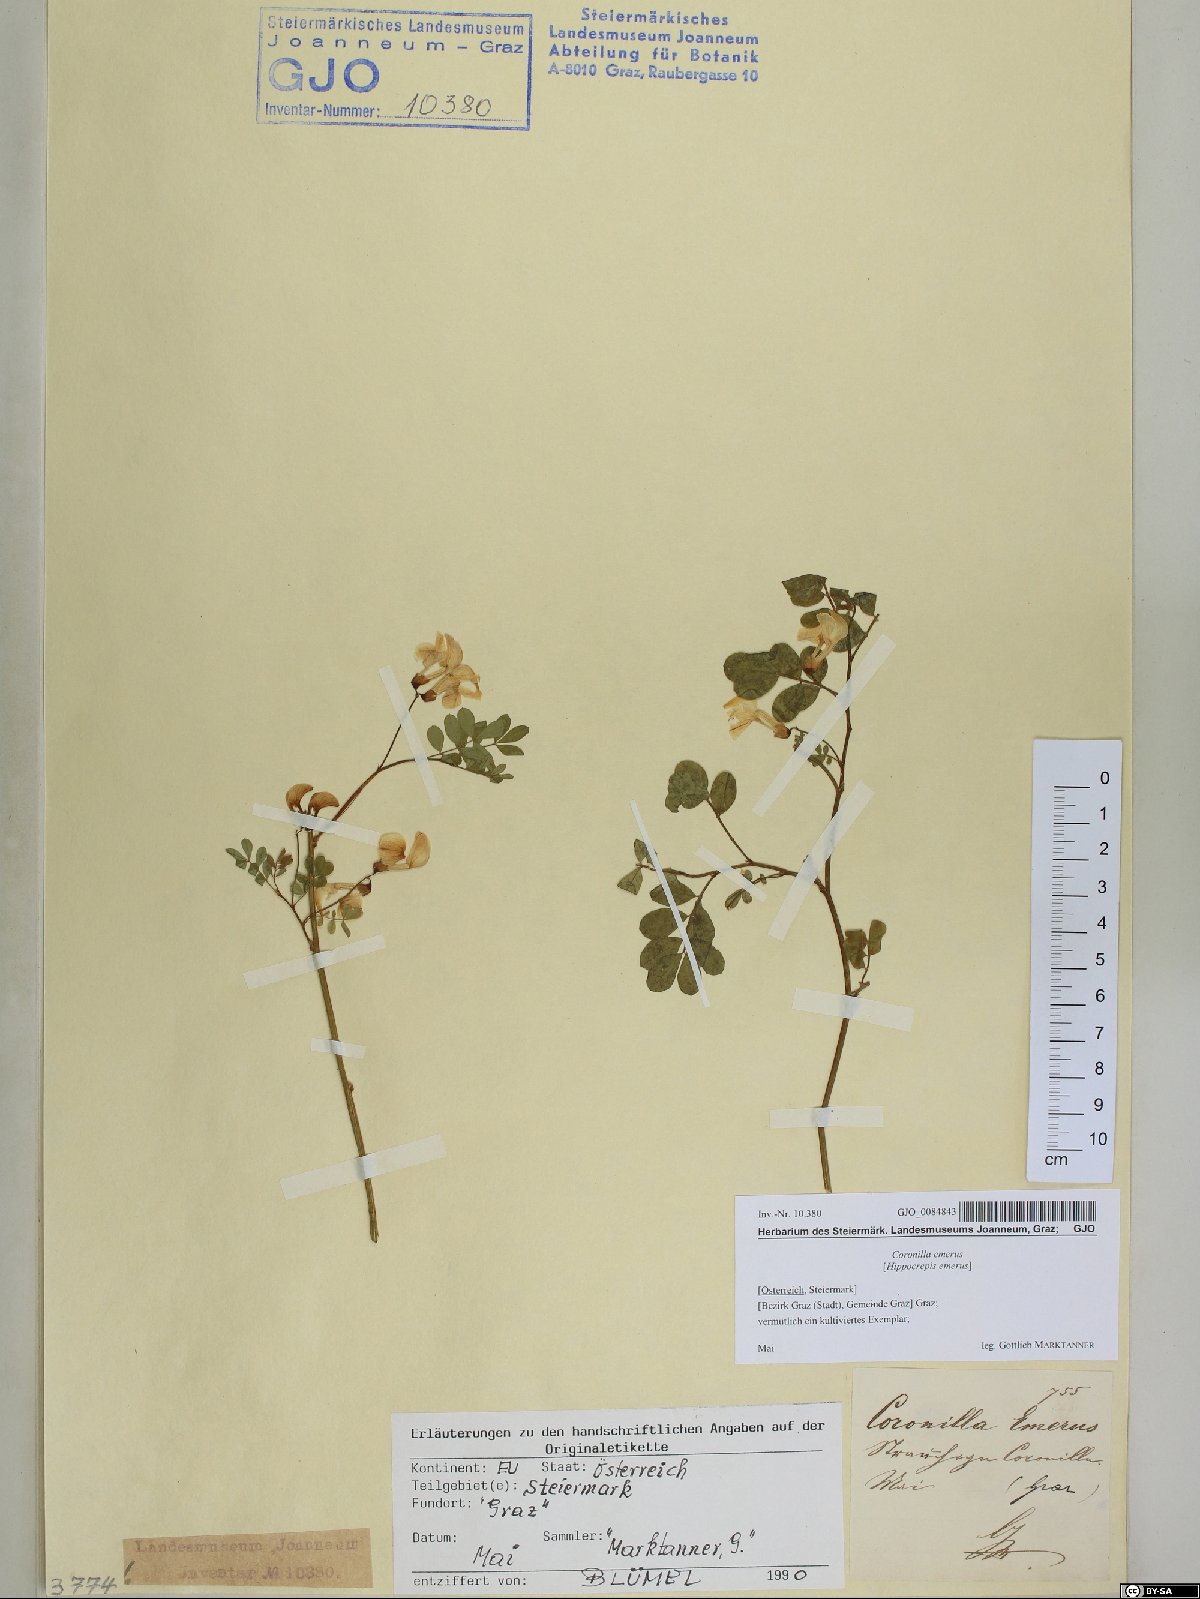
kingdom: Plantae
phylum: Tracheophyta
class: Magnoliopsida
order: Fabales
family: Fabaceae
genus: Hippocrepis
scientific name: Hippocrepis emerus
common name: Scorpion senna
